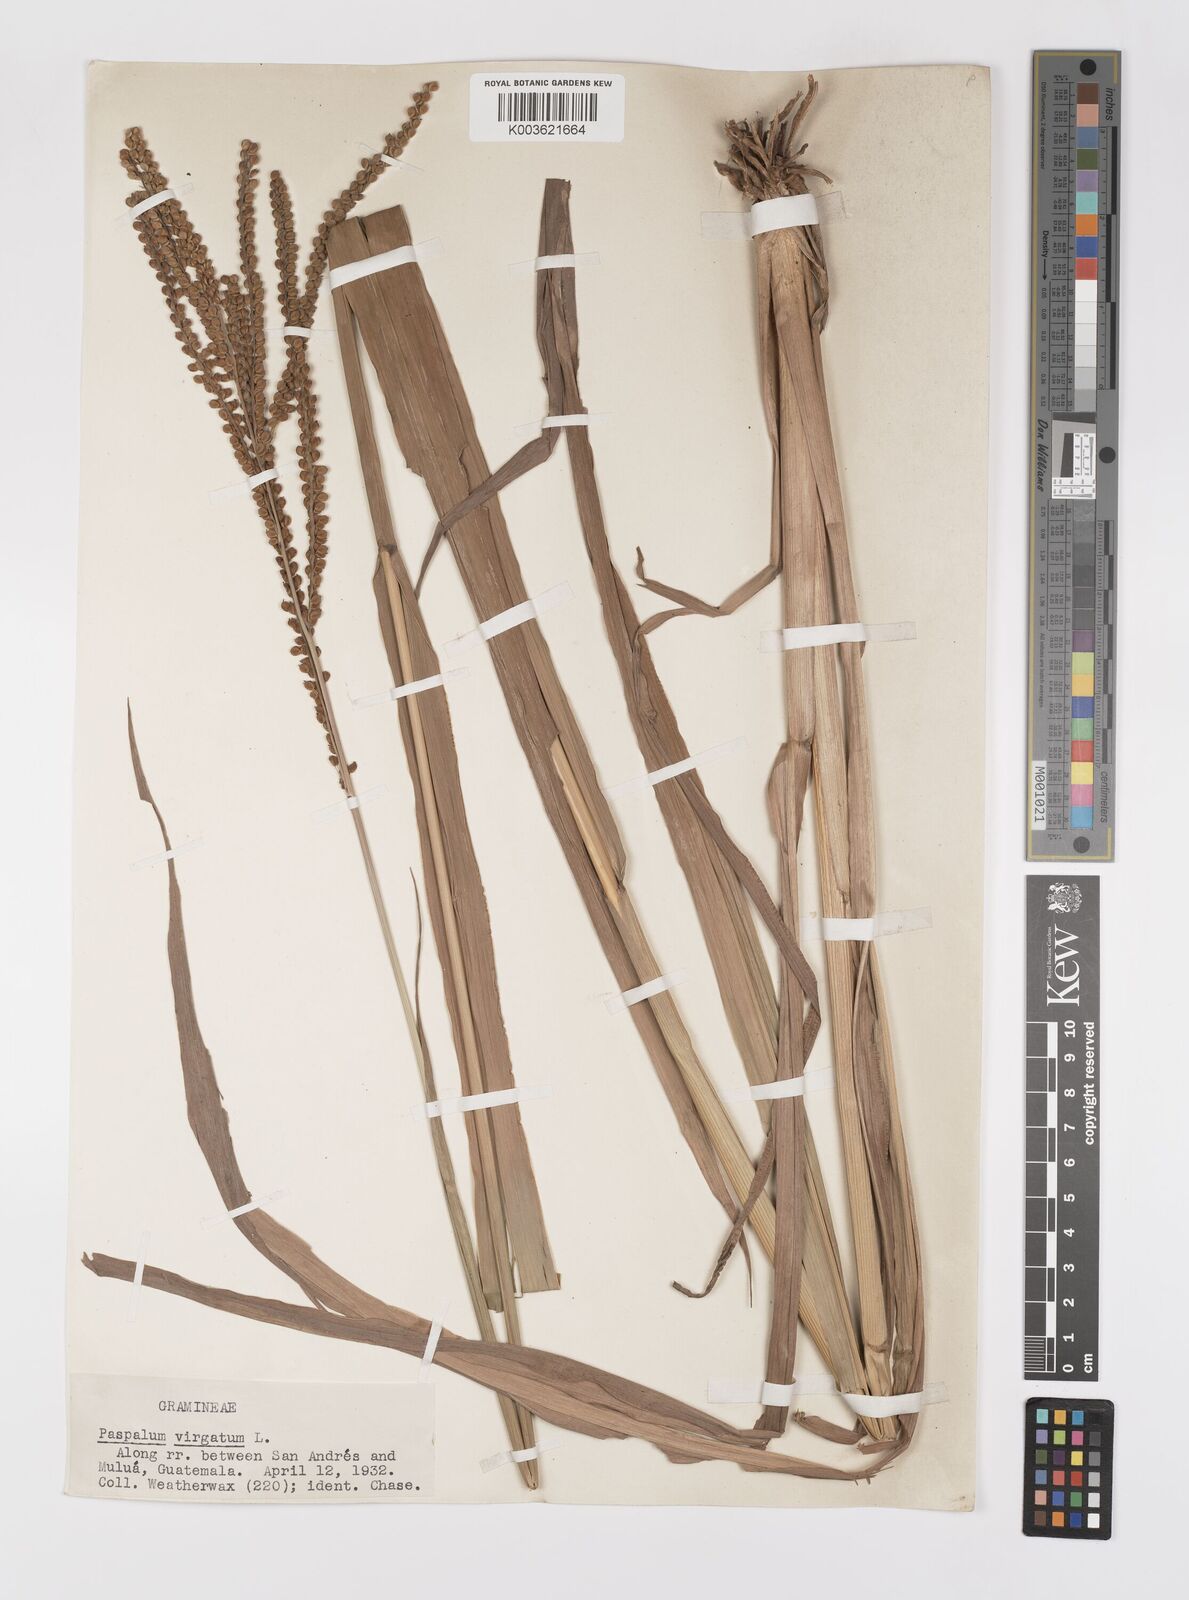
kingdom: Plantae
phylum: Tracheophyta
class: Liliopsida
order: Poales
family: Poaceae
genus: Paspalum
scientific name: Paspalum virgatum
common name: Talquezal
